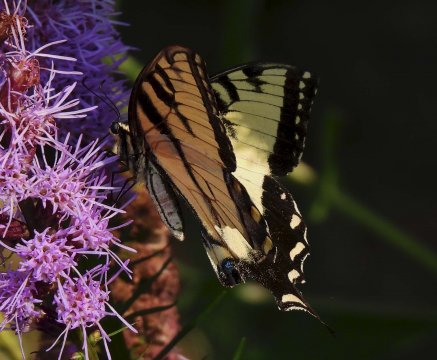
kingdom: Animalia
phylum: Arthropoda
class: Insecta
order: Lepidoptera
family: Papilionidae
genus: Pterourus
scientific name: Pterourus glaucus
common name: Eastern Tiger Swallowtail
